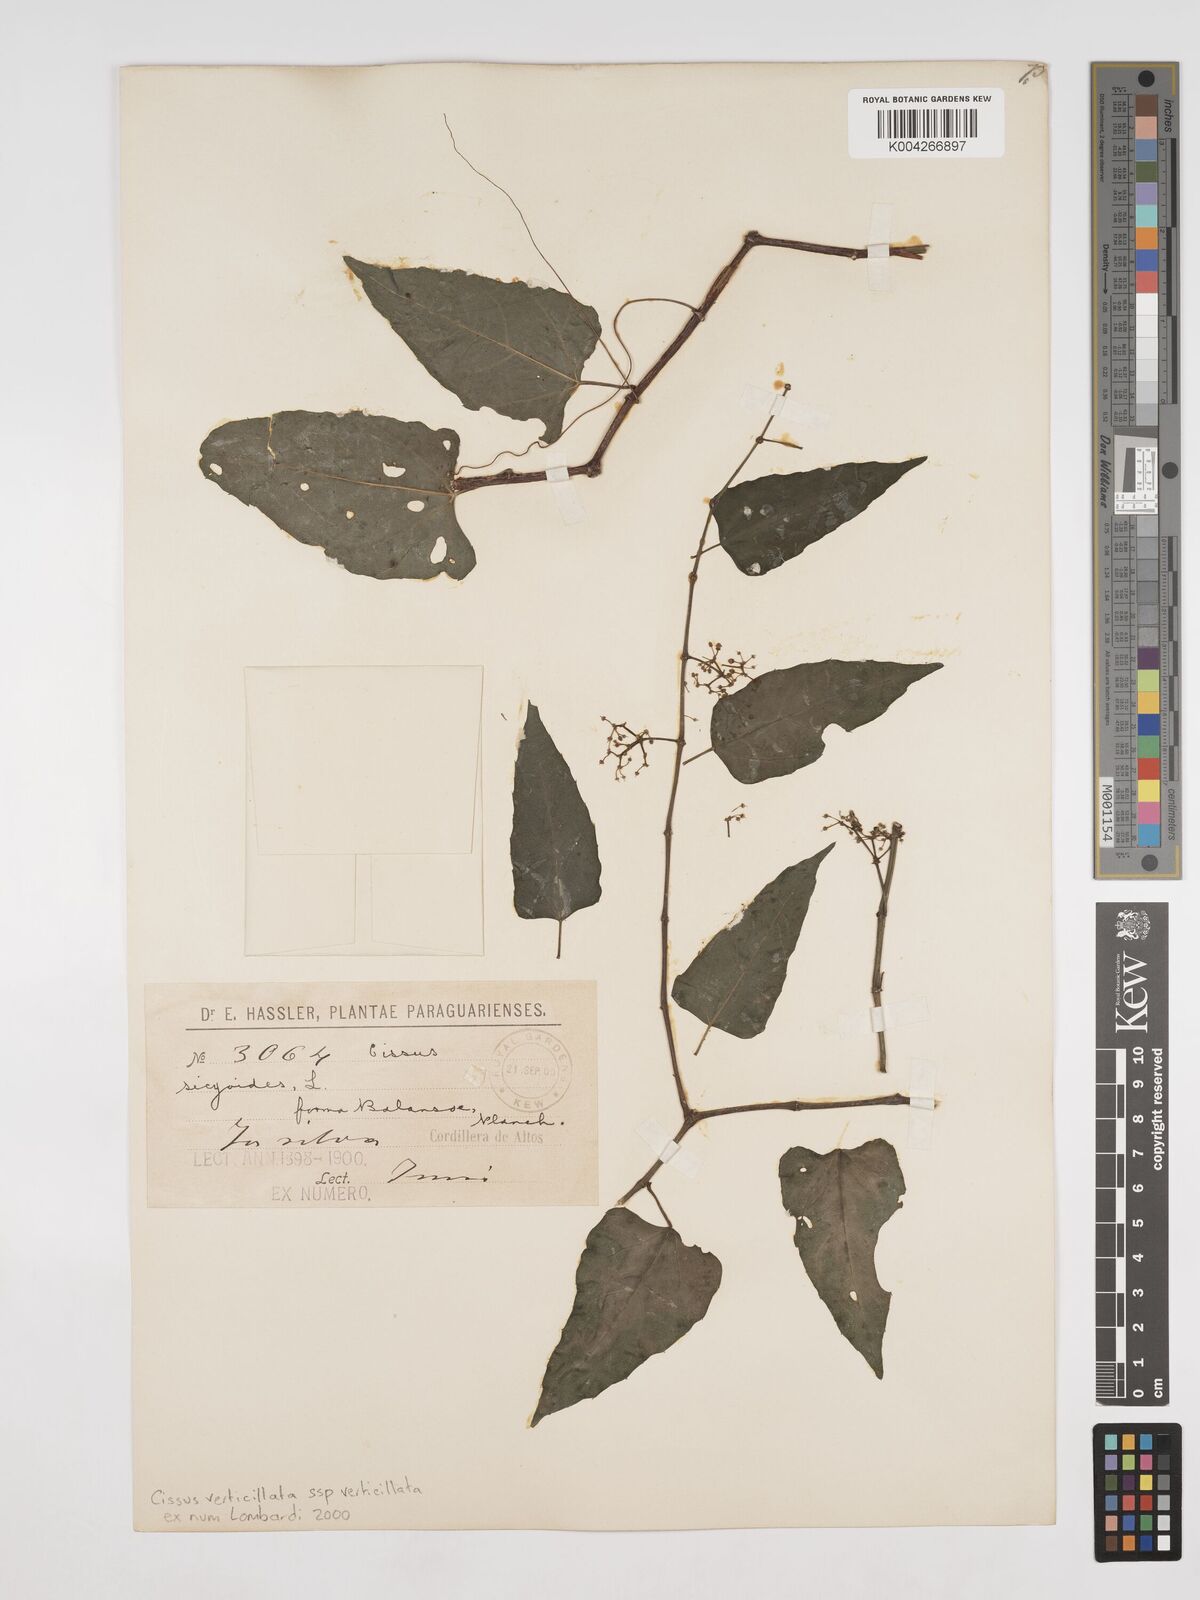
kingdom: Plantae
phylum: Tracheophyta
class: Magnoliopsida
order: Vitales
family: Vitaceae
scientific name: Vitaceae
